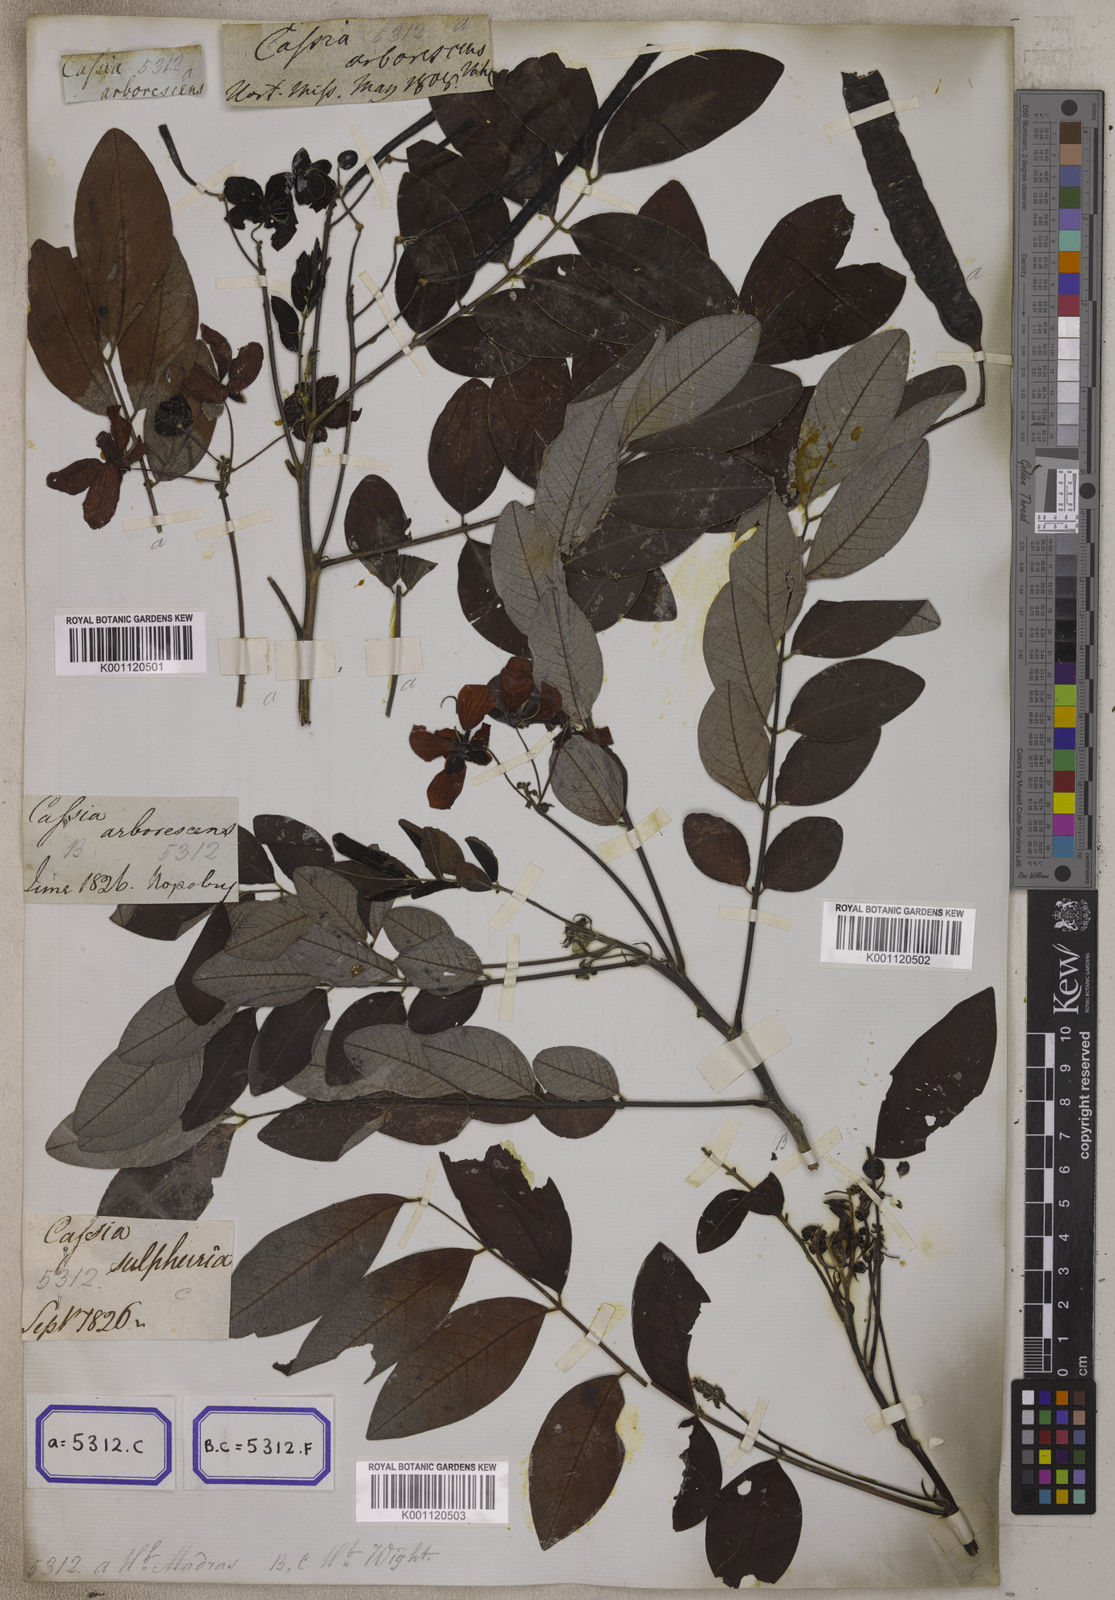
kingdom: Plantae
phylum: Tracheophyta
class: Magnoliopsida
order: Fabales
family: Fabaceae
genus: Senna
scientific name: Senna sulfurea
